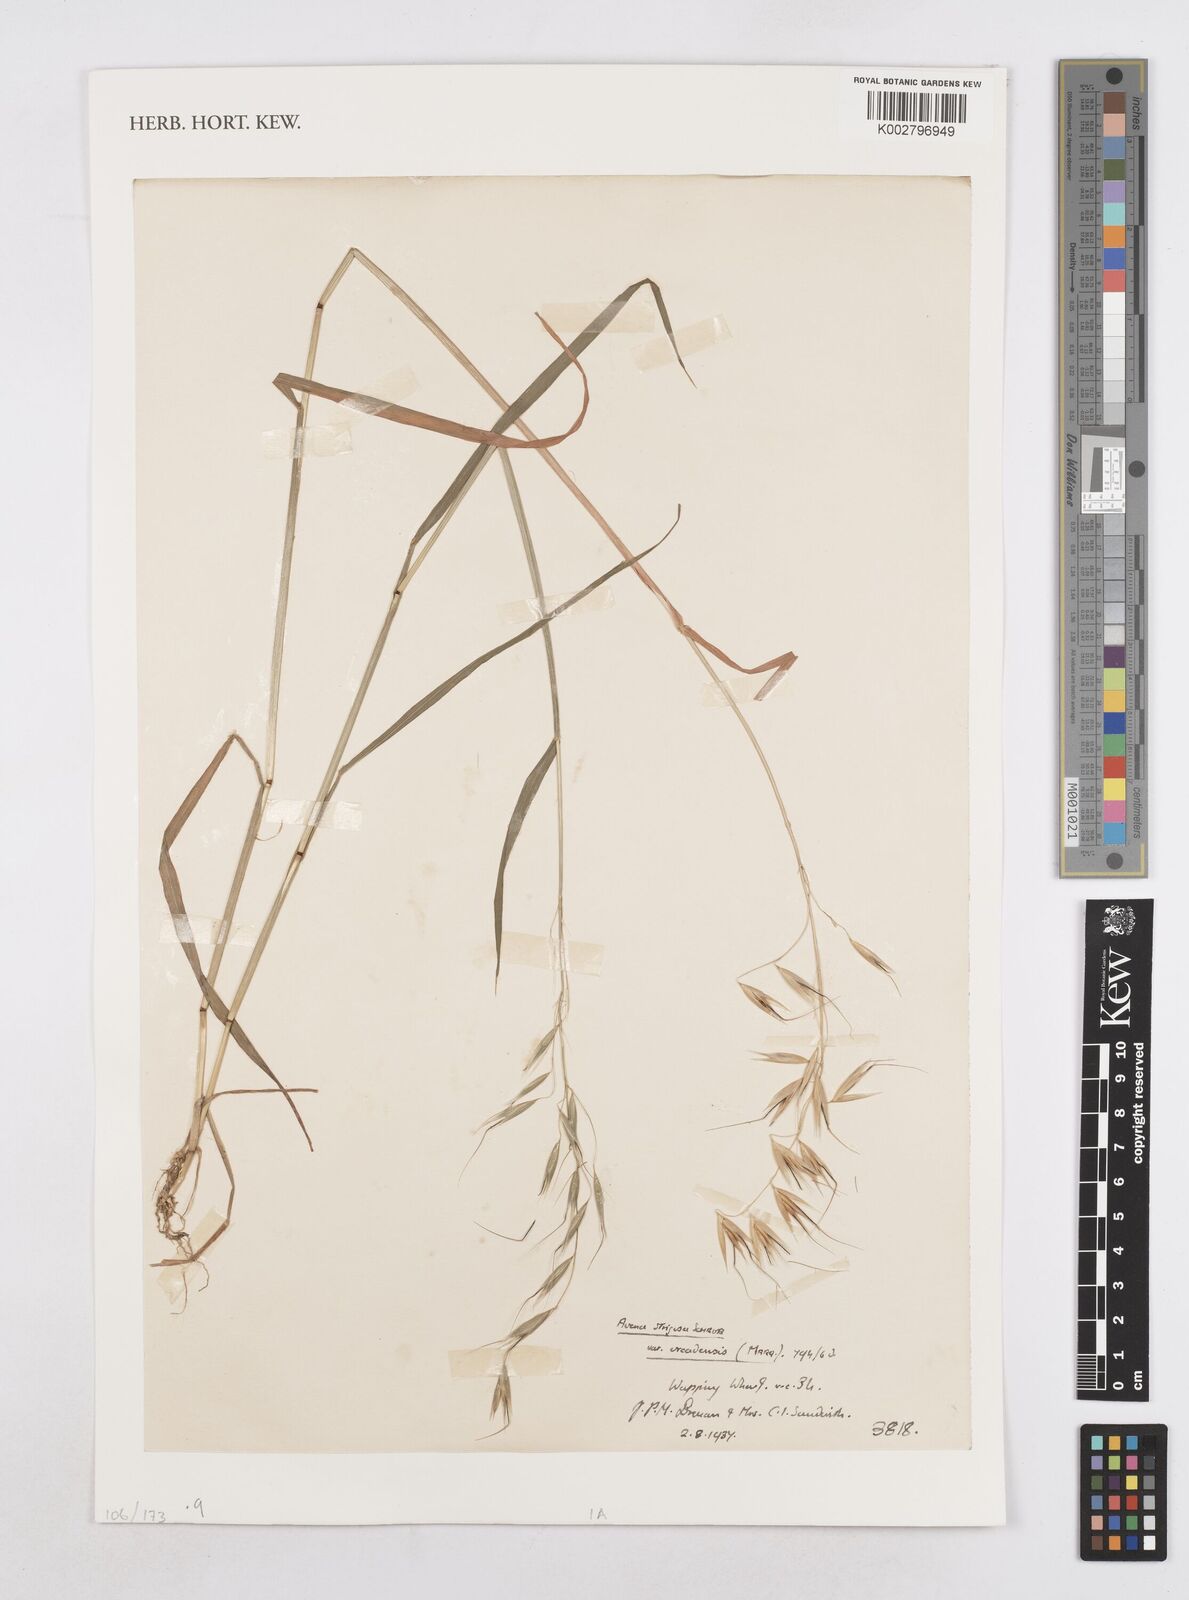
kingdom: Plantae
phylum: Tracheophyta
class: Liliopsida
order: Poales
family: Poaceae
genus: Avena
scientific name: Avena strigosa
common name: Bristle oat
